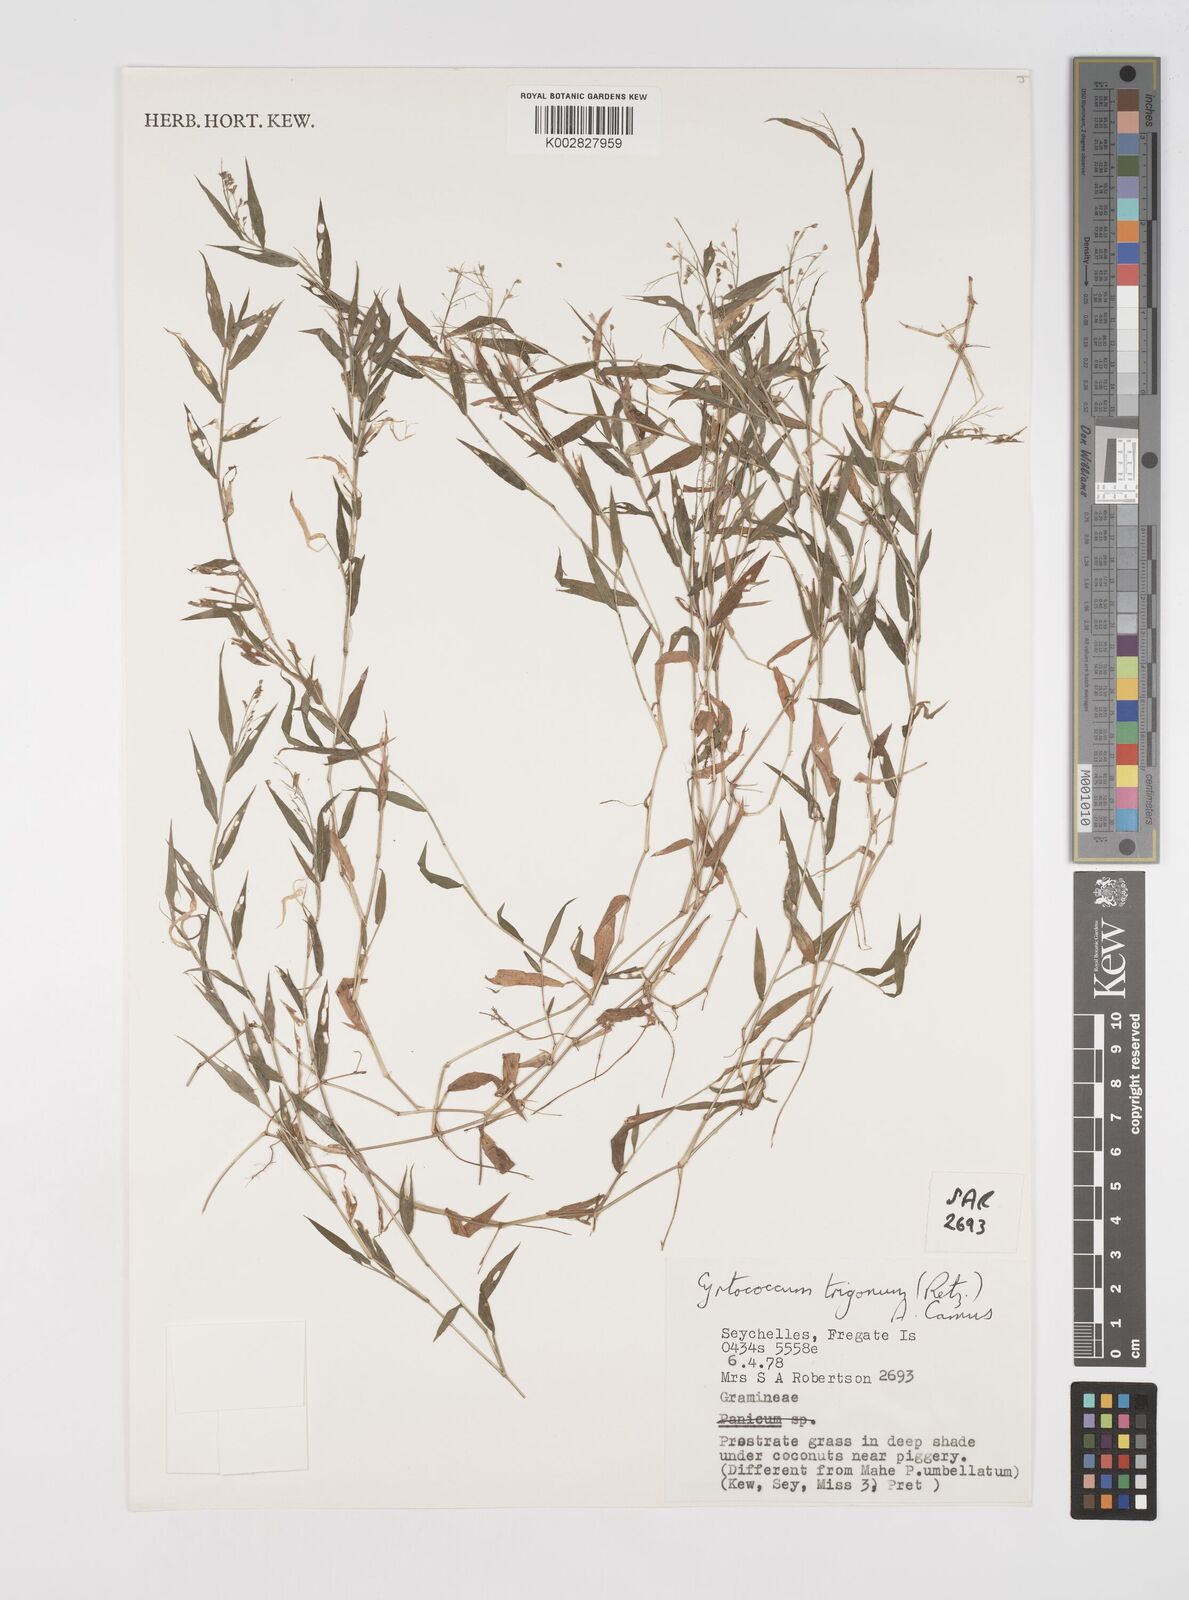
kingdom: Plantae
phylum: Tracheophyta
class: Liliopsida
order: Poales
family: Poaceae
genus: Cyrtococcum
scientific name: Cyrtococcum trigonum
